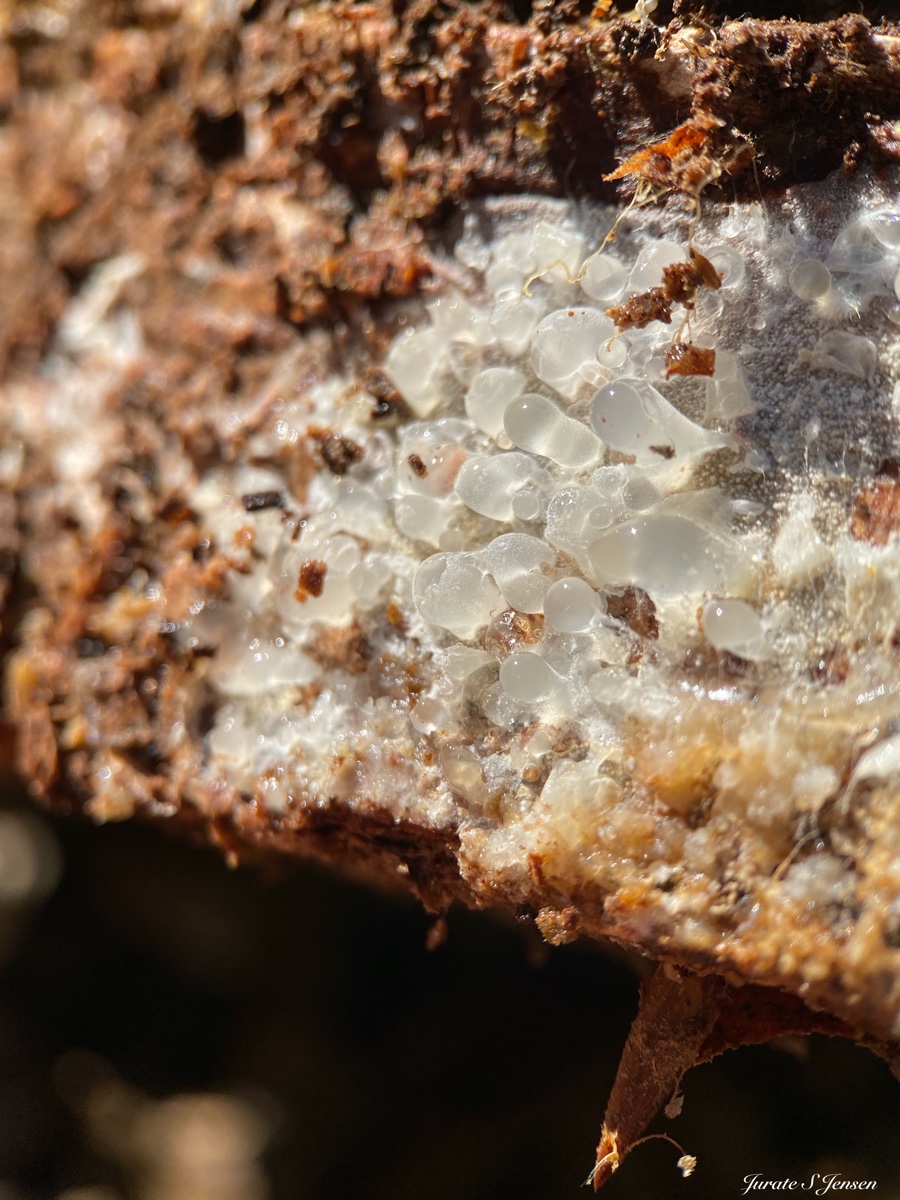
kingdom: Fungi
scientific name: Fungi
